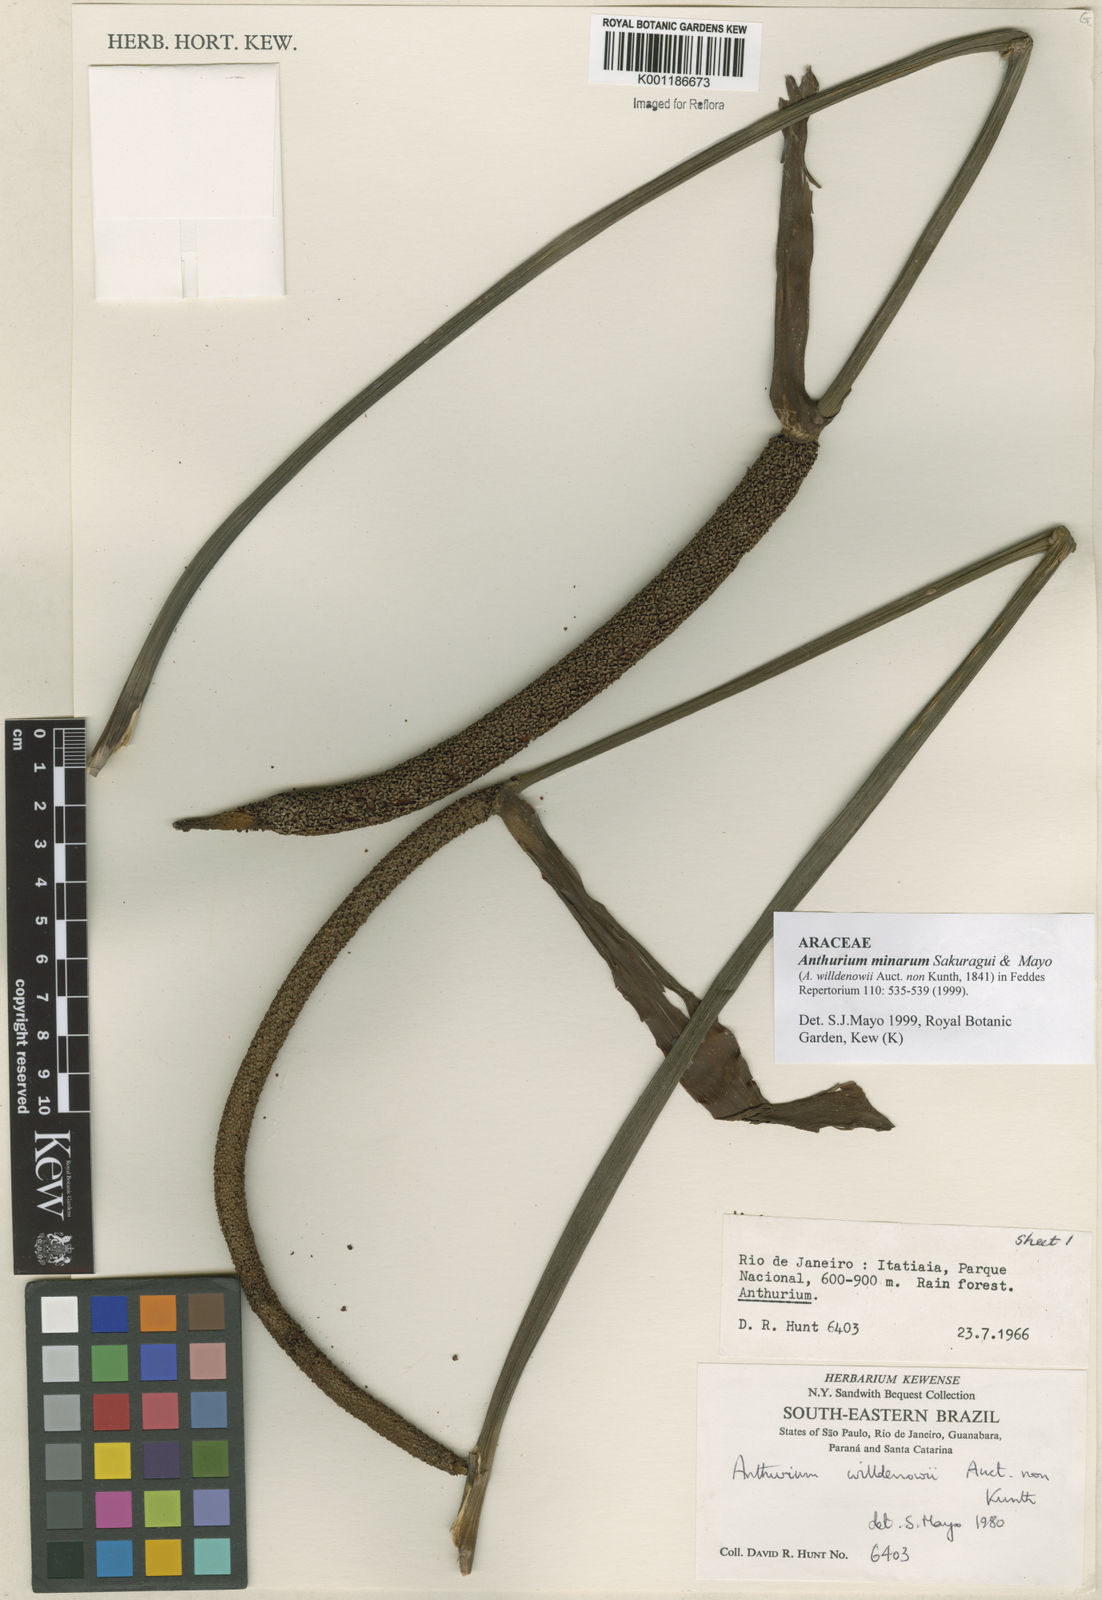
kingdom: Plantae
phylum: Tracheophyta
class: Liliopsida
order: Alismatales
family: Araceae
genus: Anthurium
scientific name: Anthurium minarum
